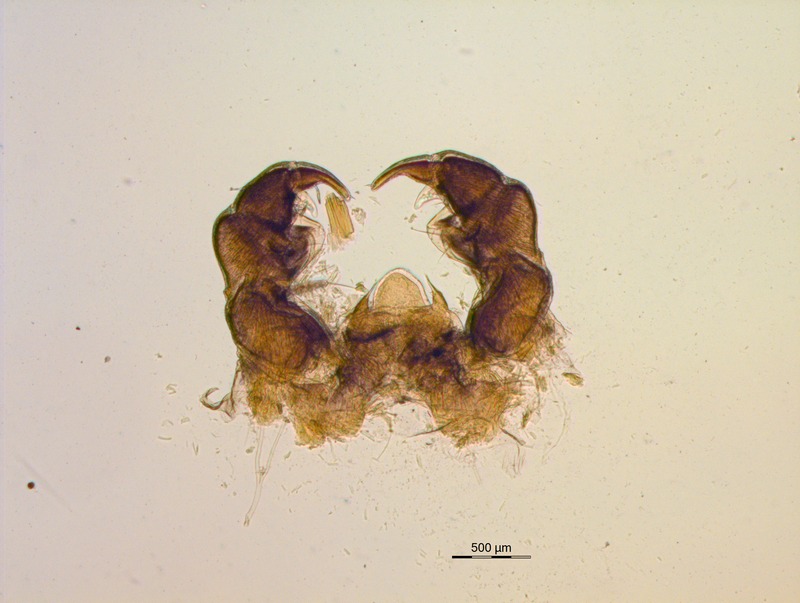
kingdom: Animalia
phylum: Arthropoda
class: Diplopoda
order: Glomerida
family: Glomeridae
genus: Glomeris
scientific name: Glomeris prominens
